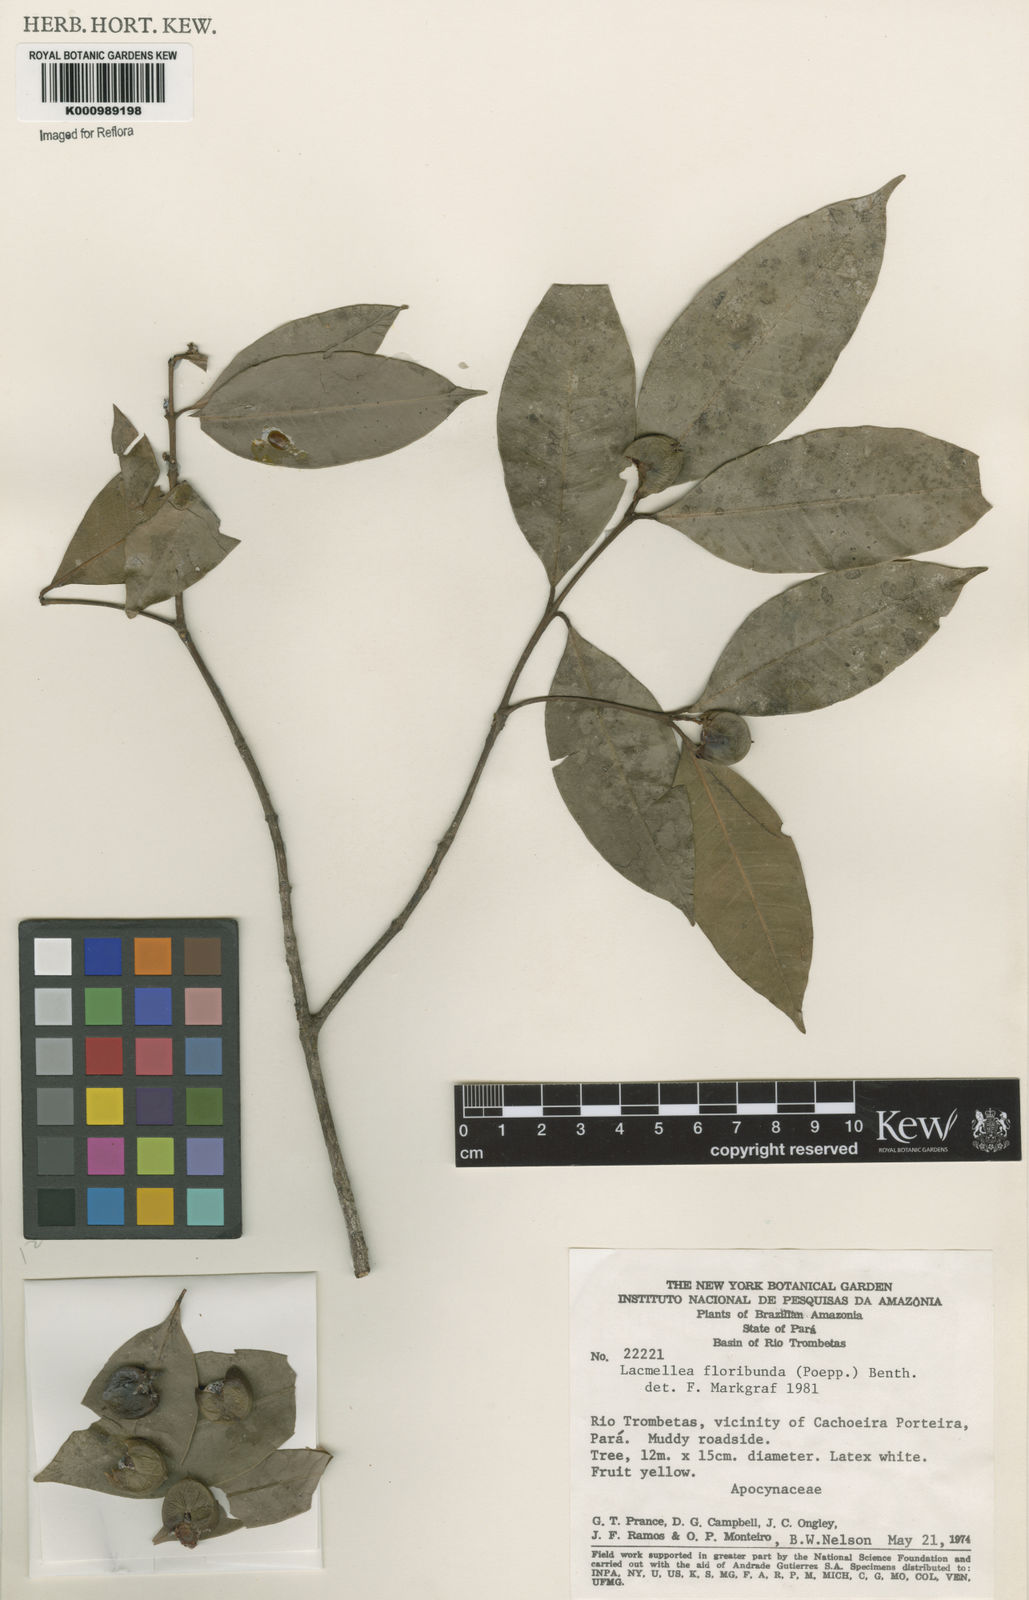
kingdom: Plantae
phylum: Tracheophyta
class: Magnoliopsida
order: Gentianales
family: Apocynaceae
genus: Lacmellea
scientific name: Lacmellea floribunda
